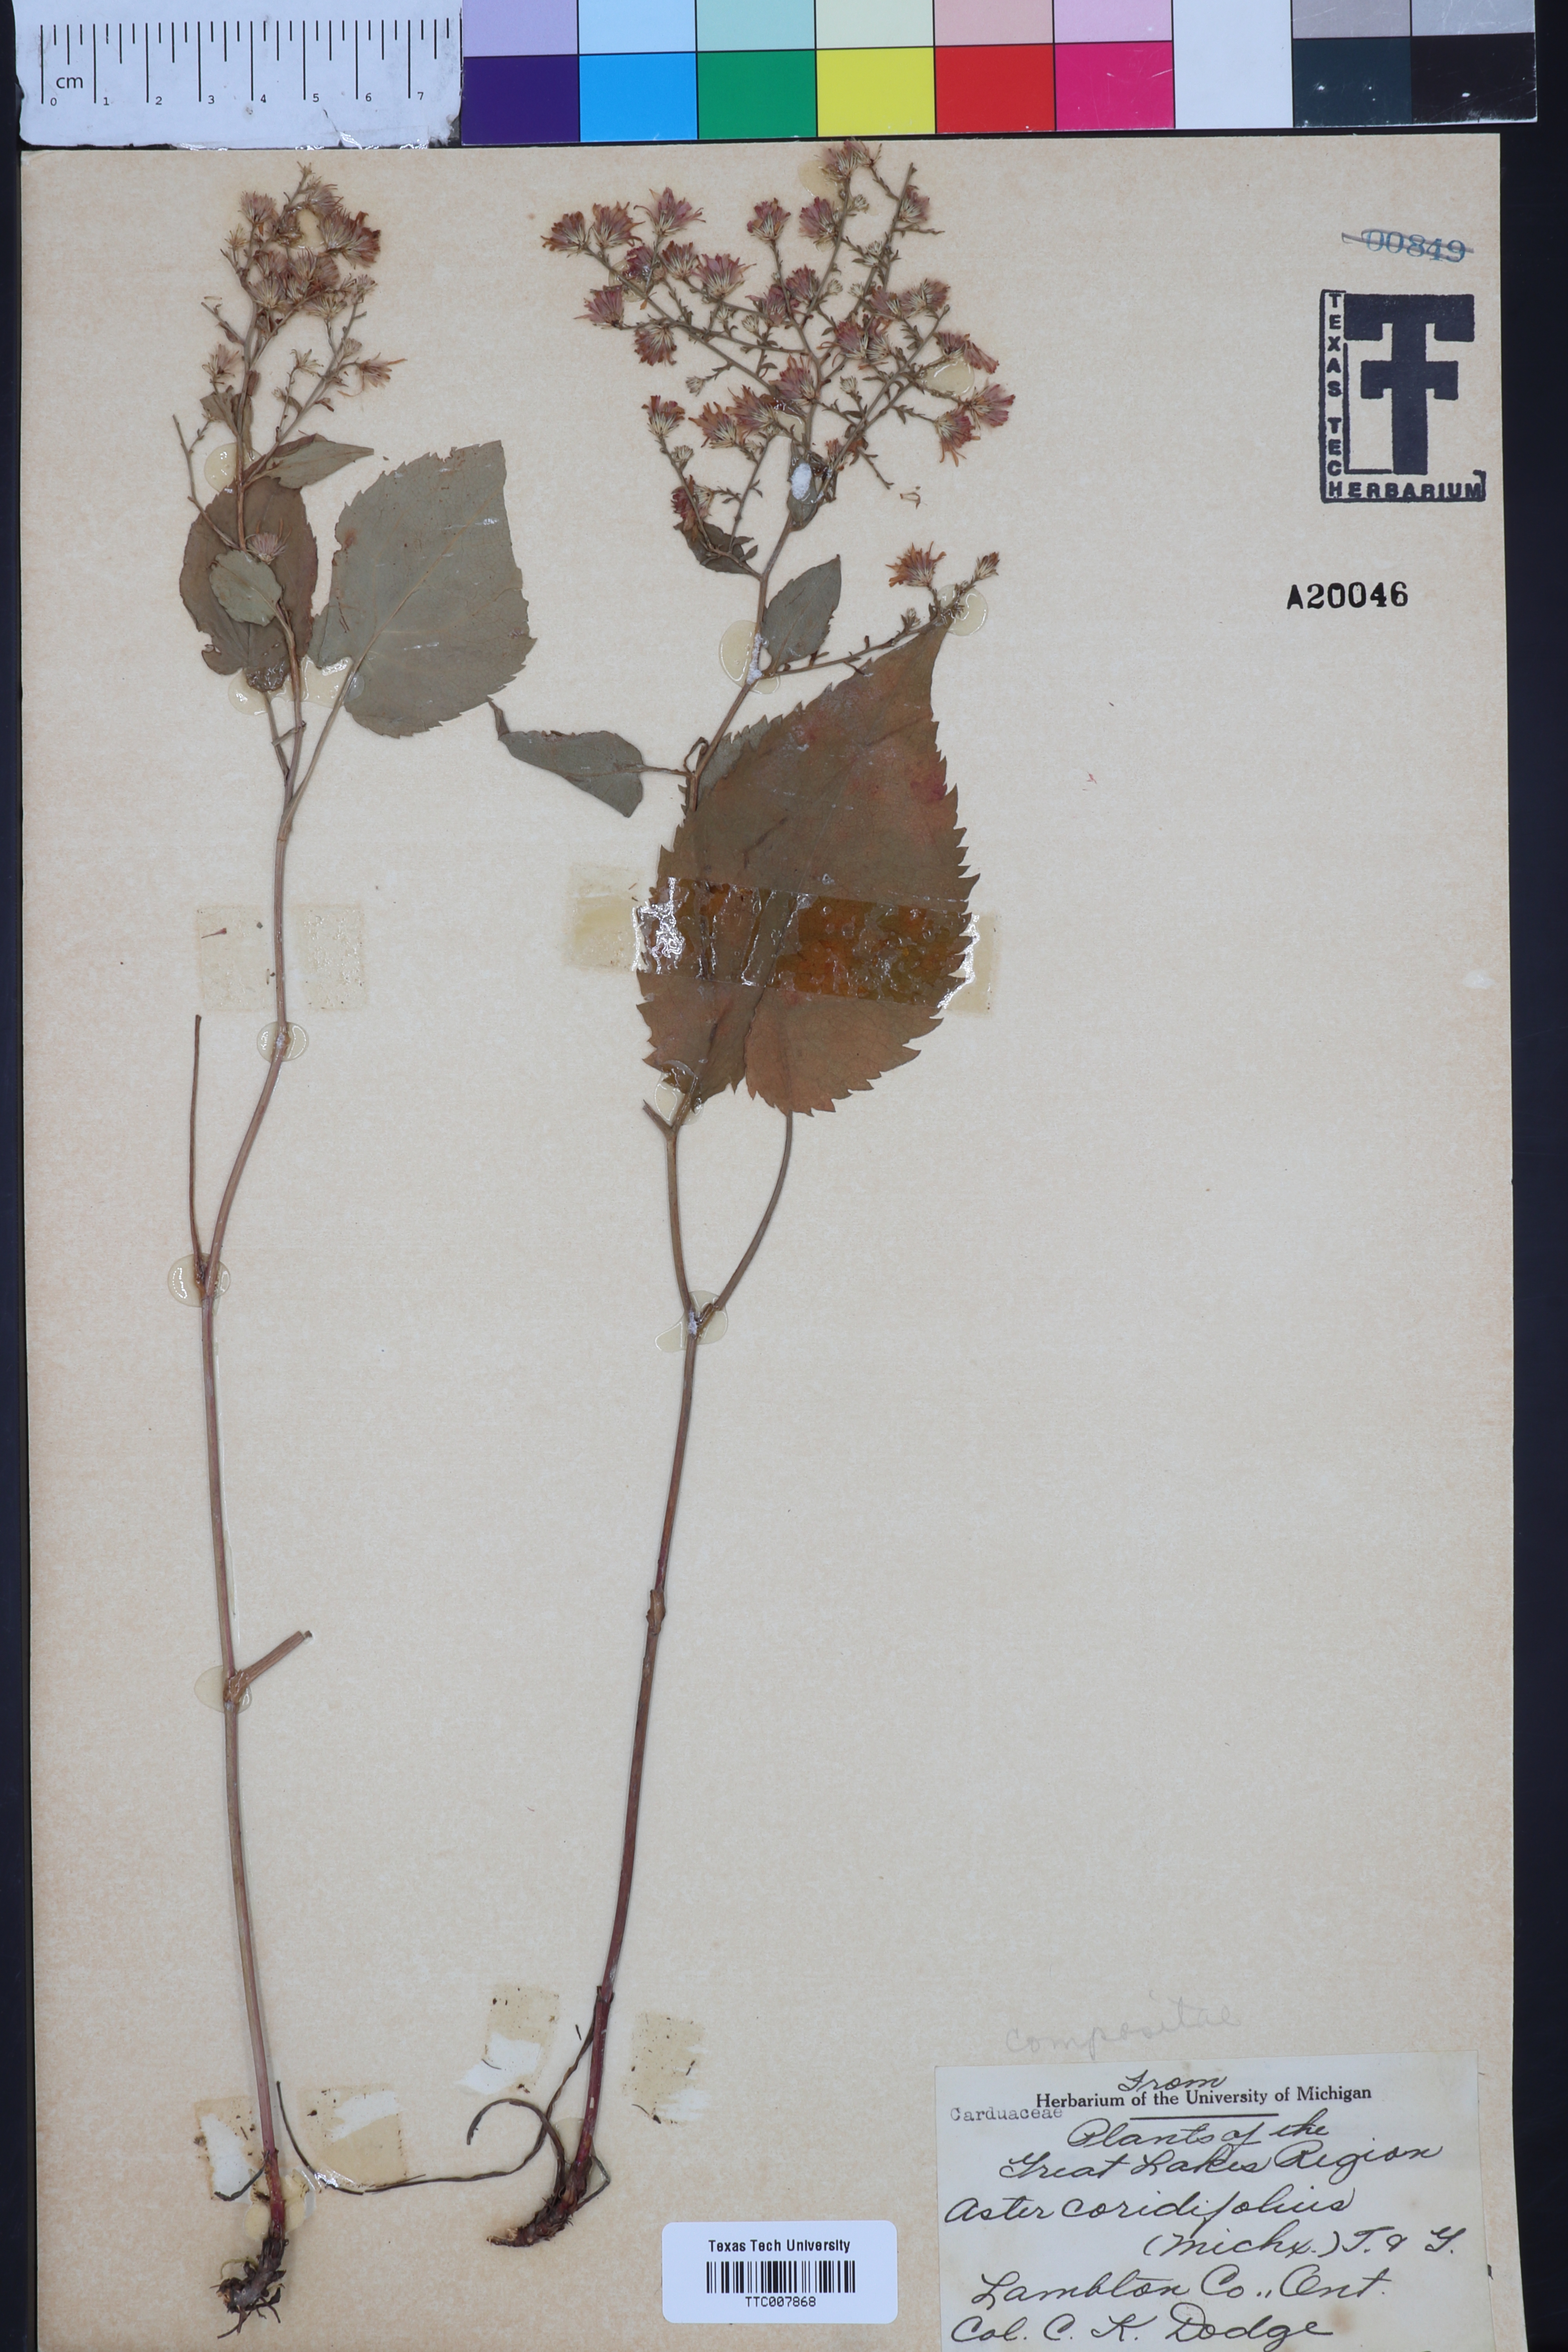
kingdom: Plantae
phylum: Tracheophyta
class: Magnoliopsida
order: Asterales
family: Asteraceae
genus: Symphyotrichum
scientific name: Symphyotrichum dumosum
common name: Bushy aster
